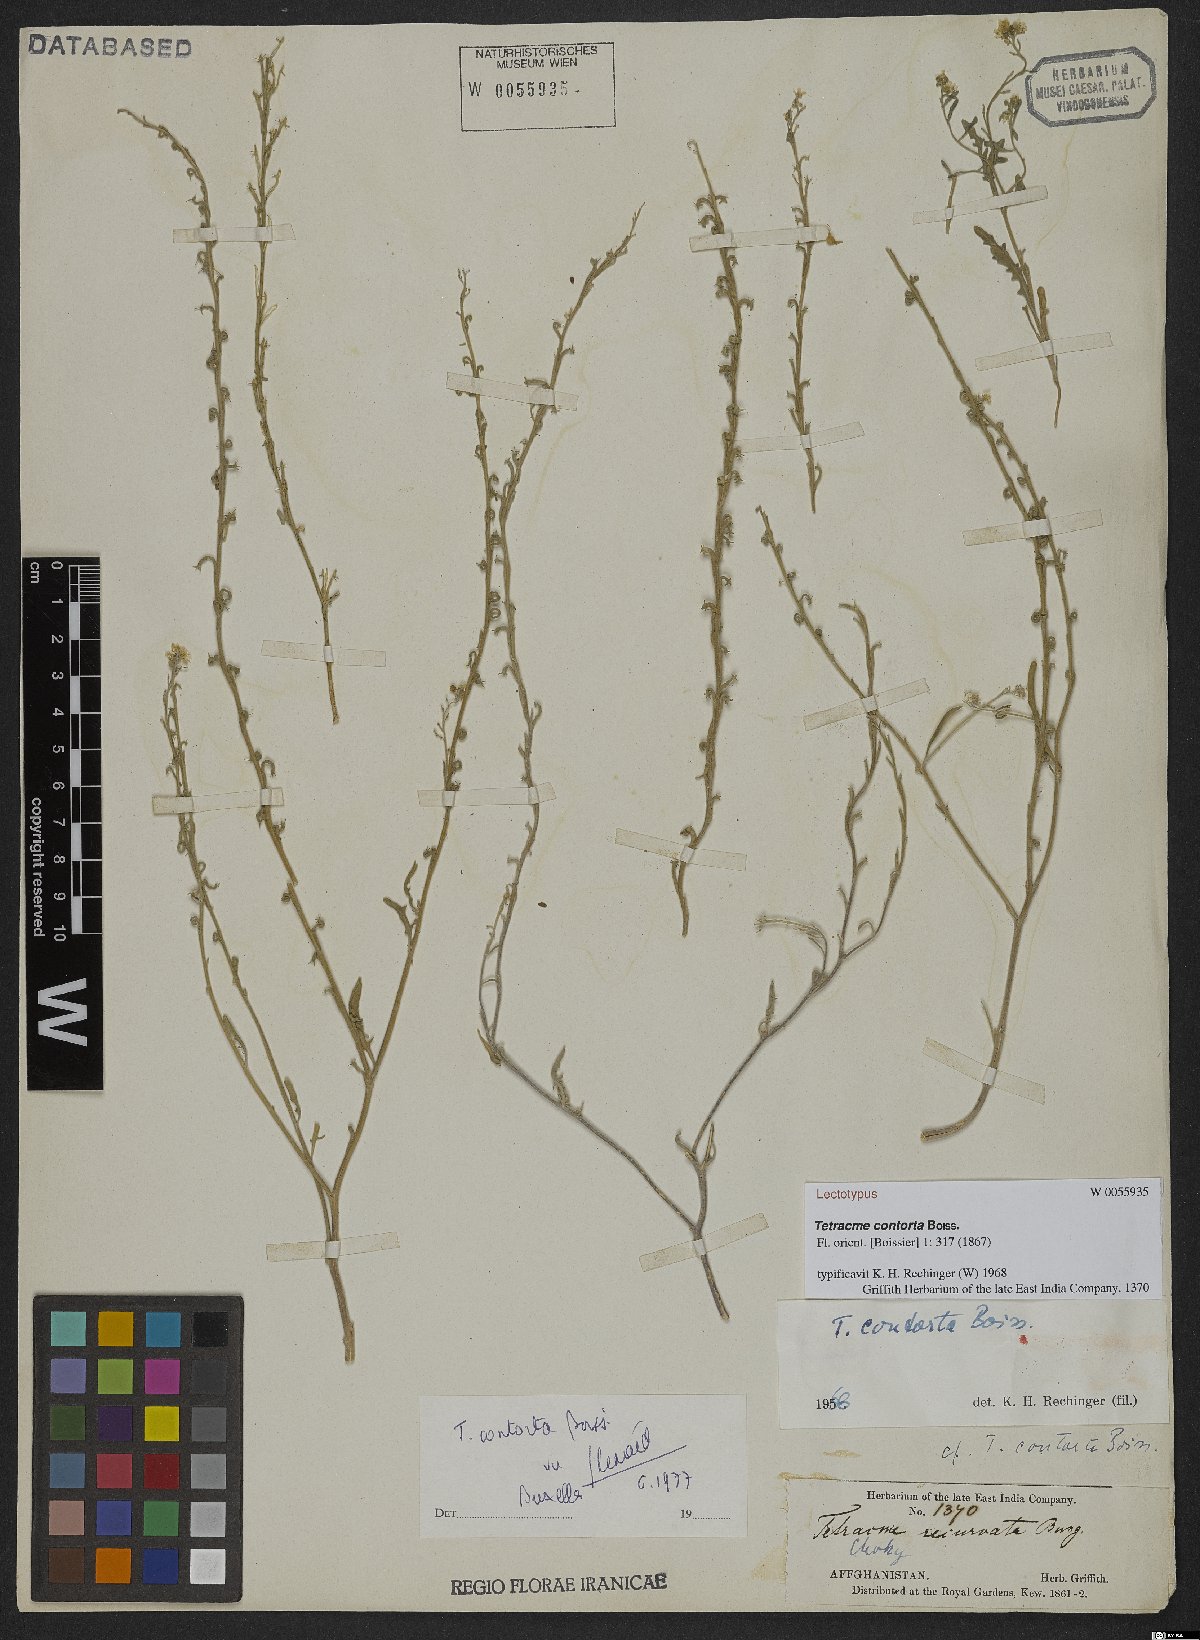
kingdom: Plantae
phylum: Tracheophyta
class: Magnoliopsida
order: Brassicales
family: Brassicaceae
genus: Tetracme
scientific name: Tetracme contorta
